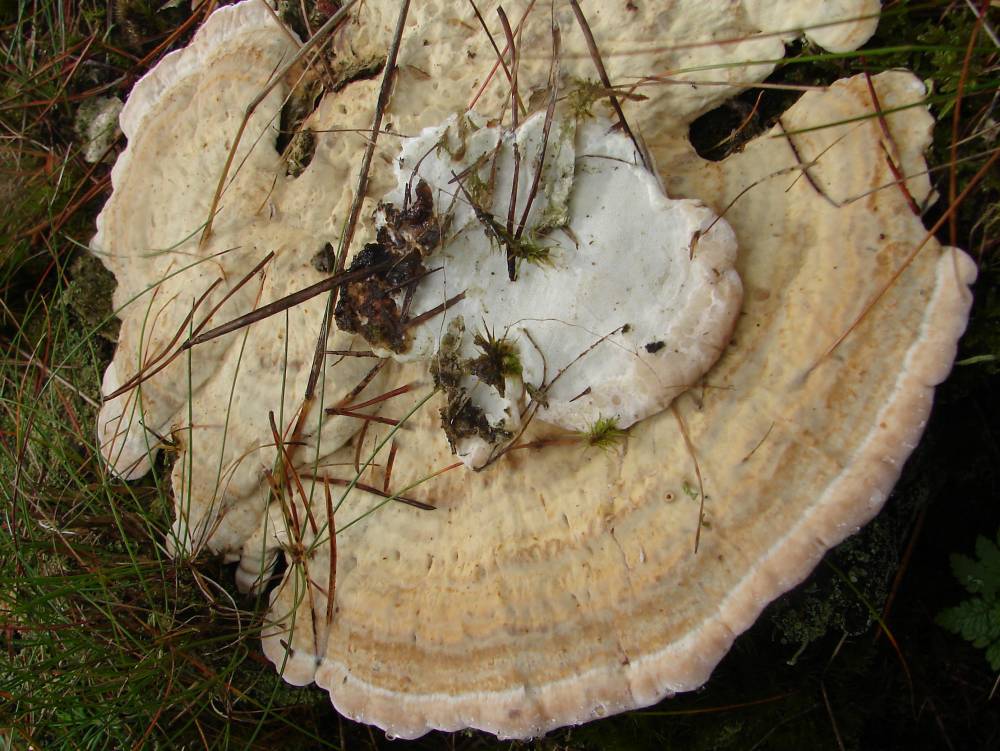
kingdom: Fungi
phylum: Basidiomycota
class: Agaricomycetes
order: Polyporales
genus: Calcipostia
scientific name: Calcipostia guttulata
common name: dråbe-kødporesvamp
